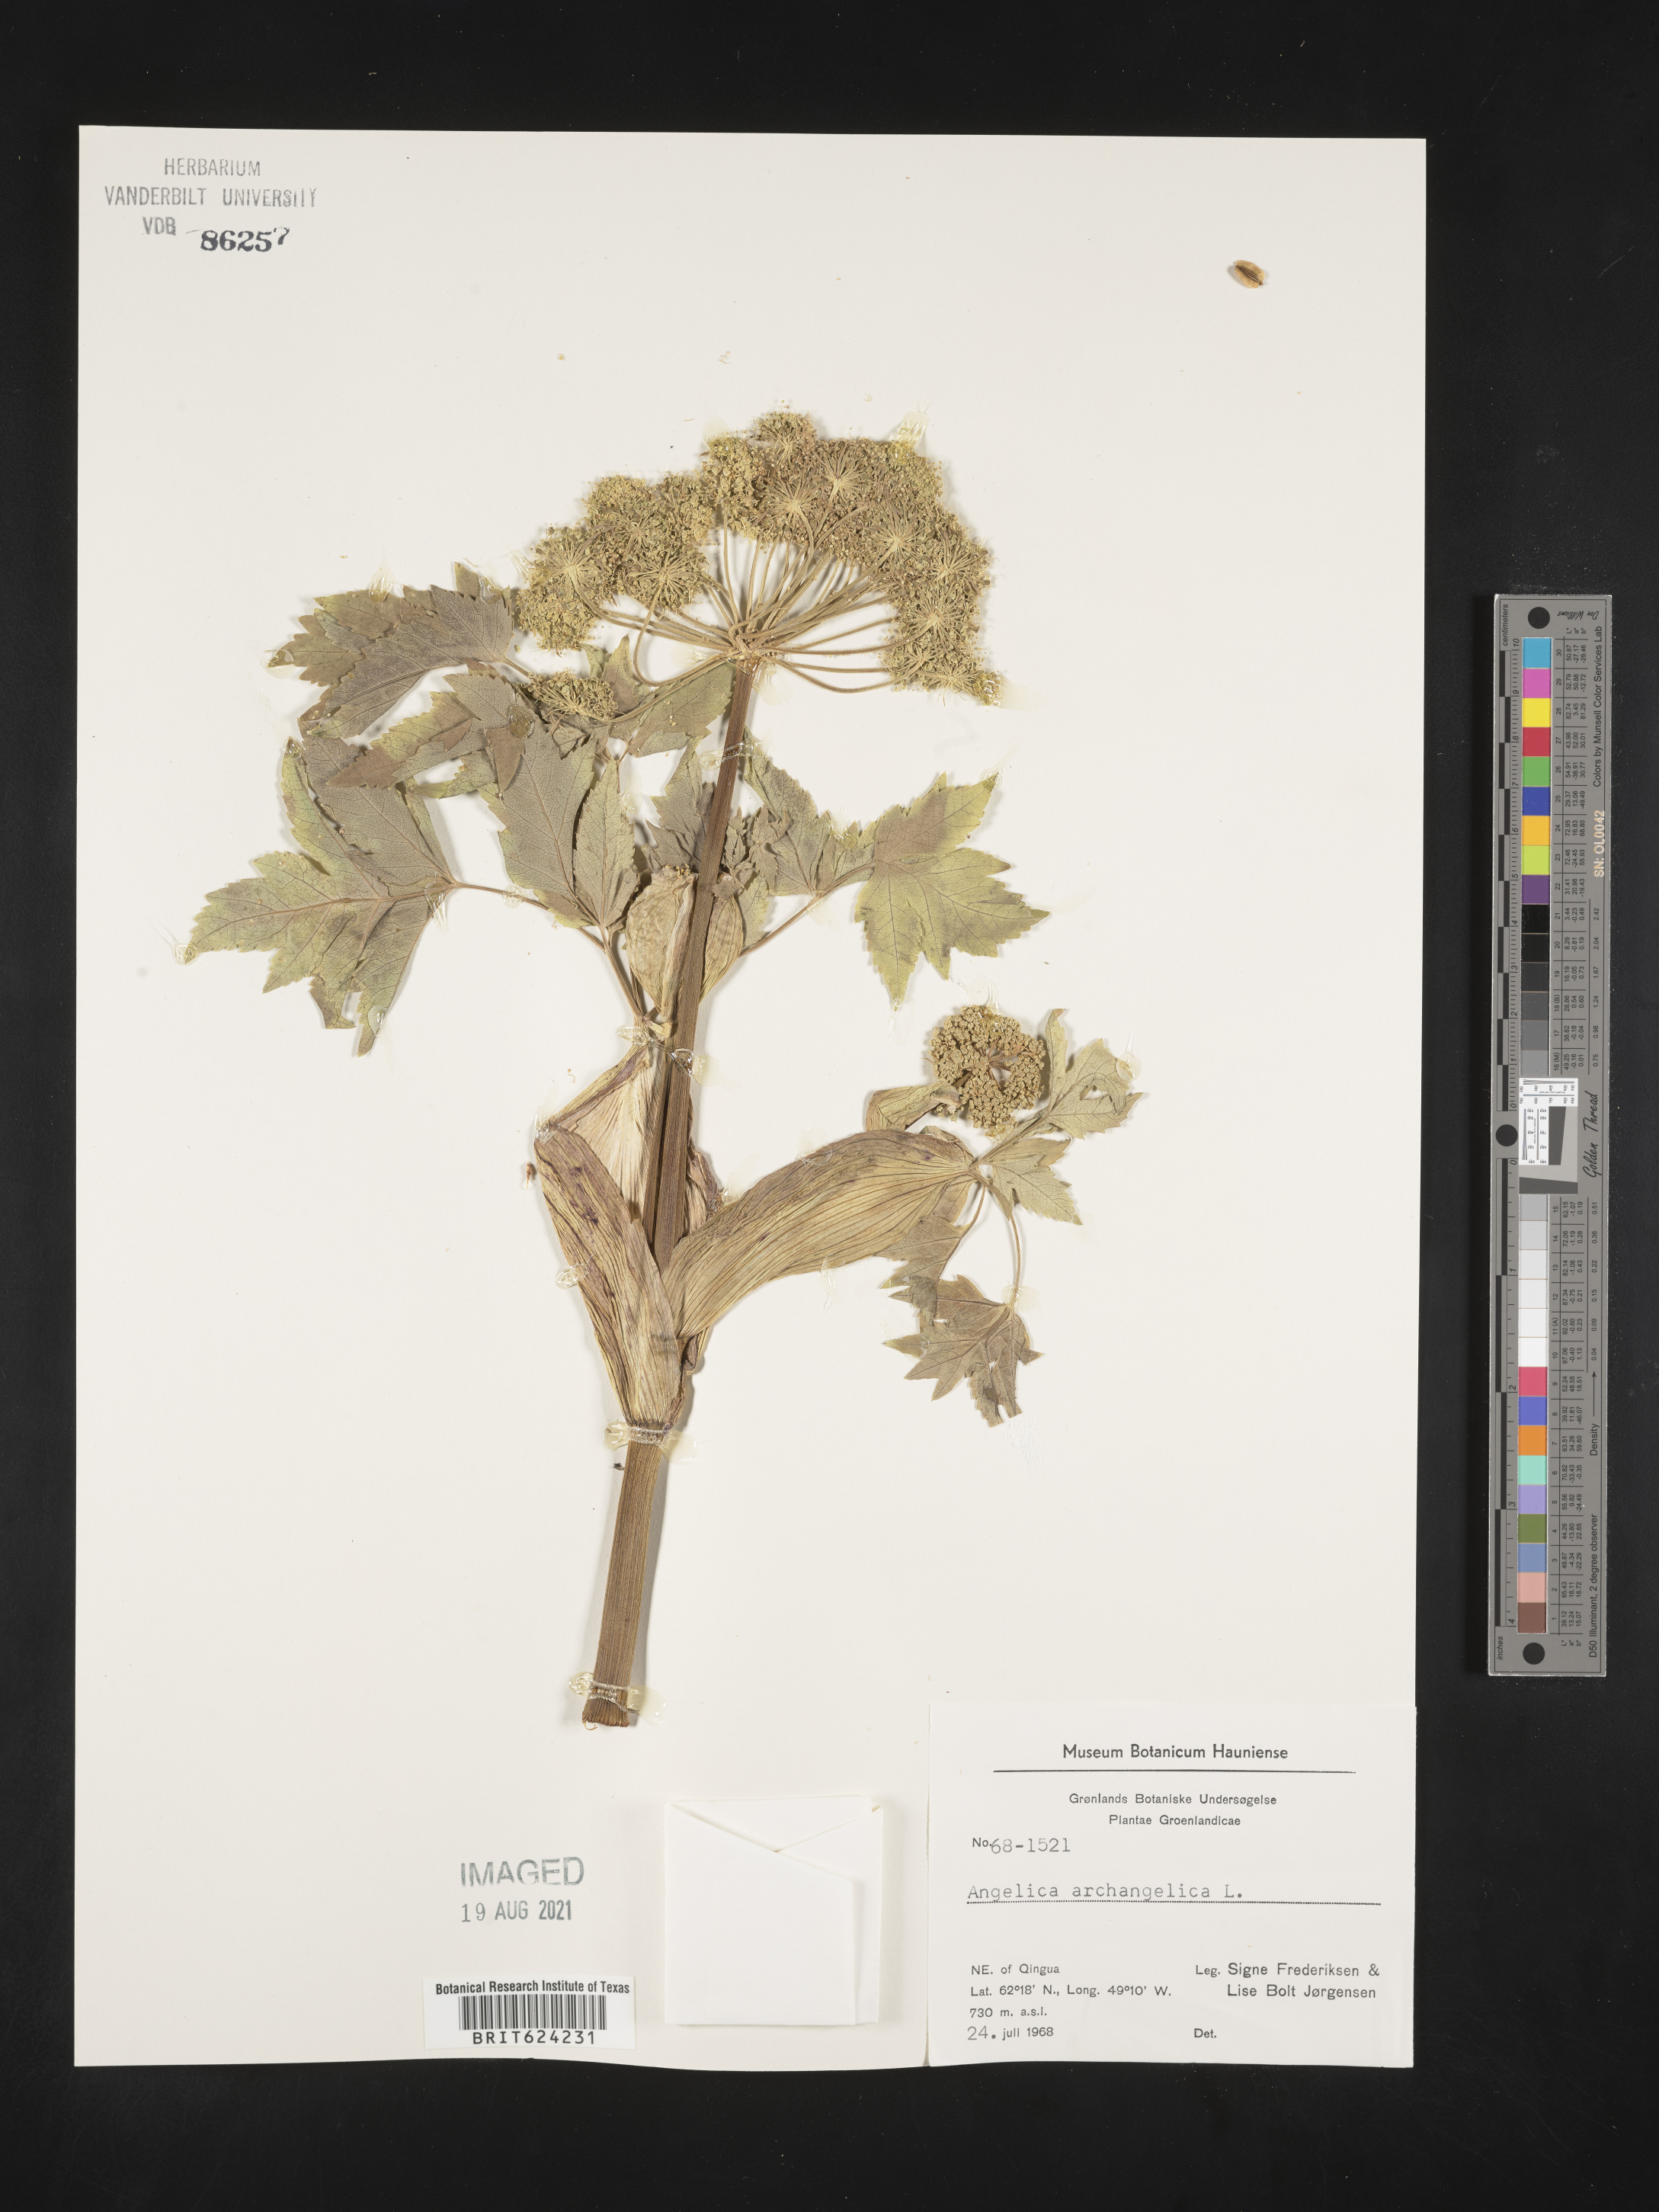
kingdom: Plantae
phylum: Tracheophyta
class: Magnoliopsida
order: Apiales
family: Apiaceae
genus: Angelica
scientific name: Angelica archangelica
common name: Garden angelica
